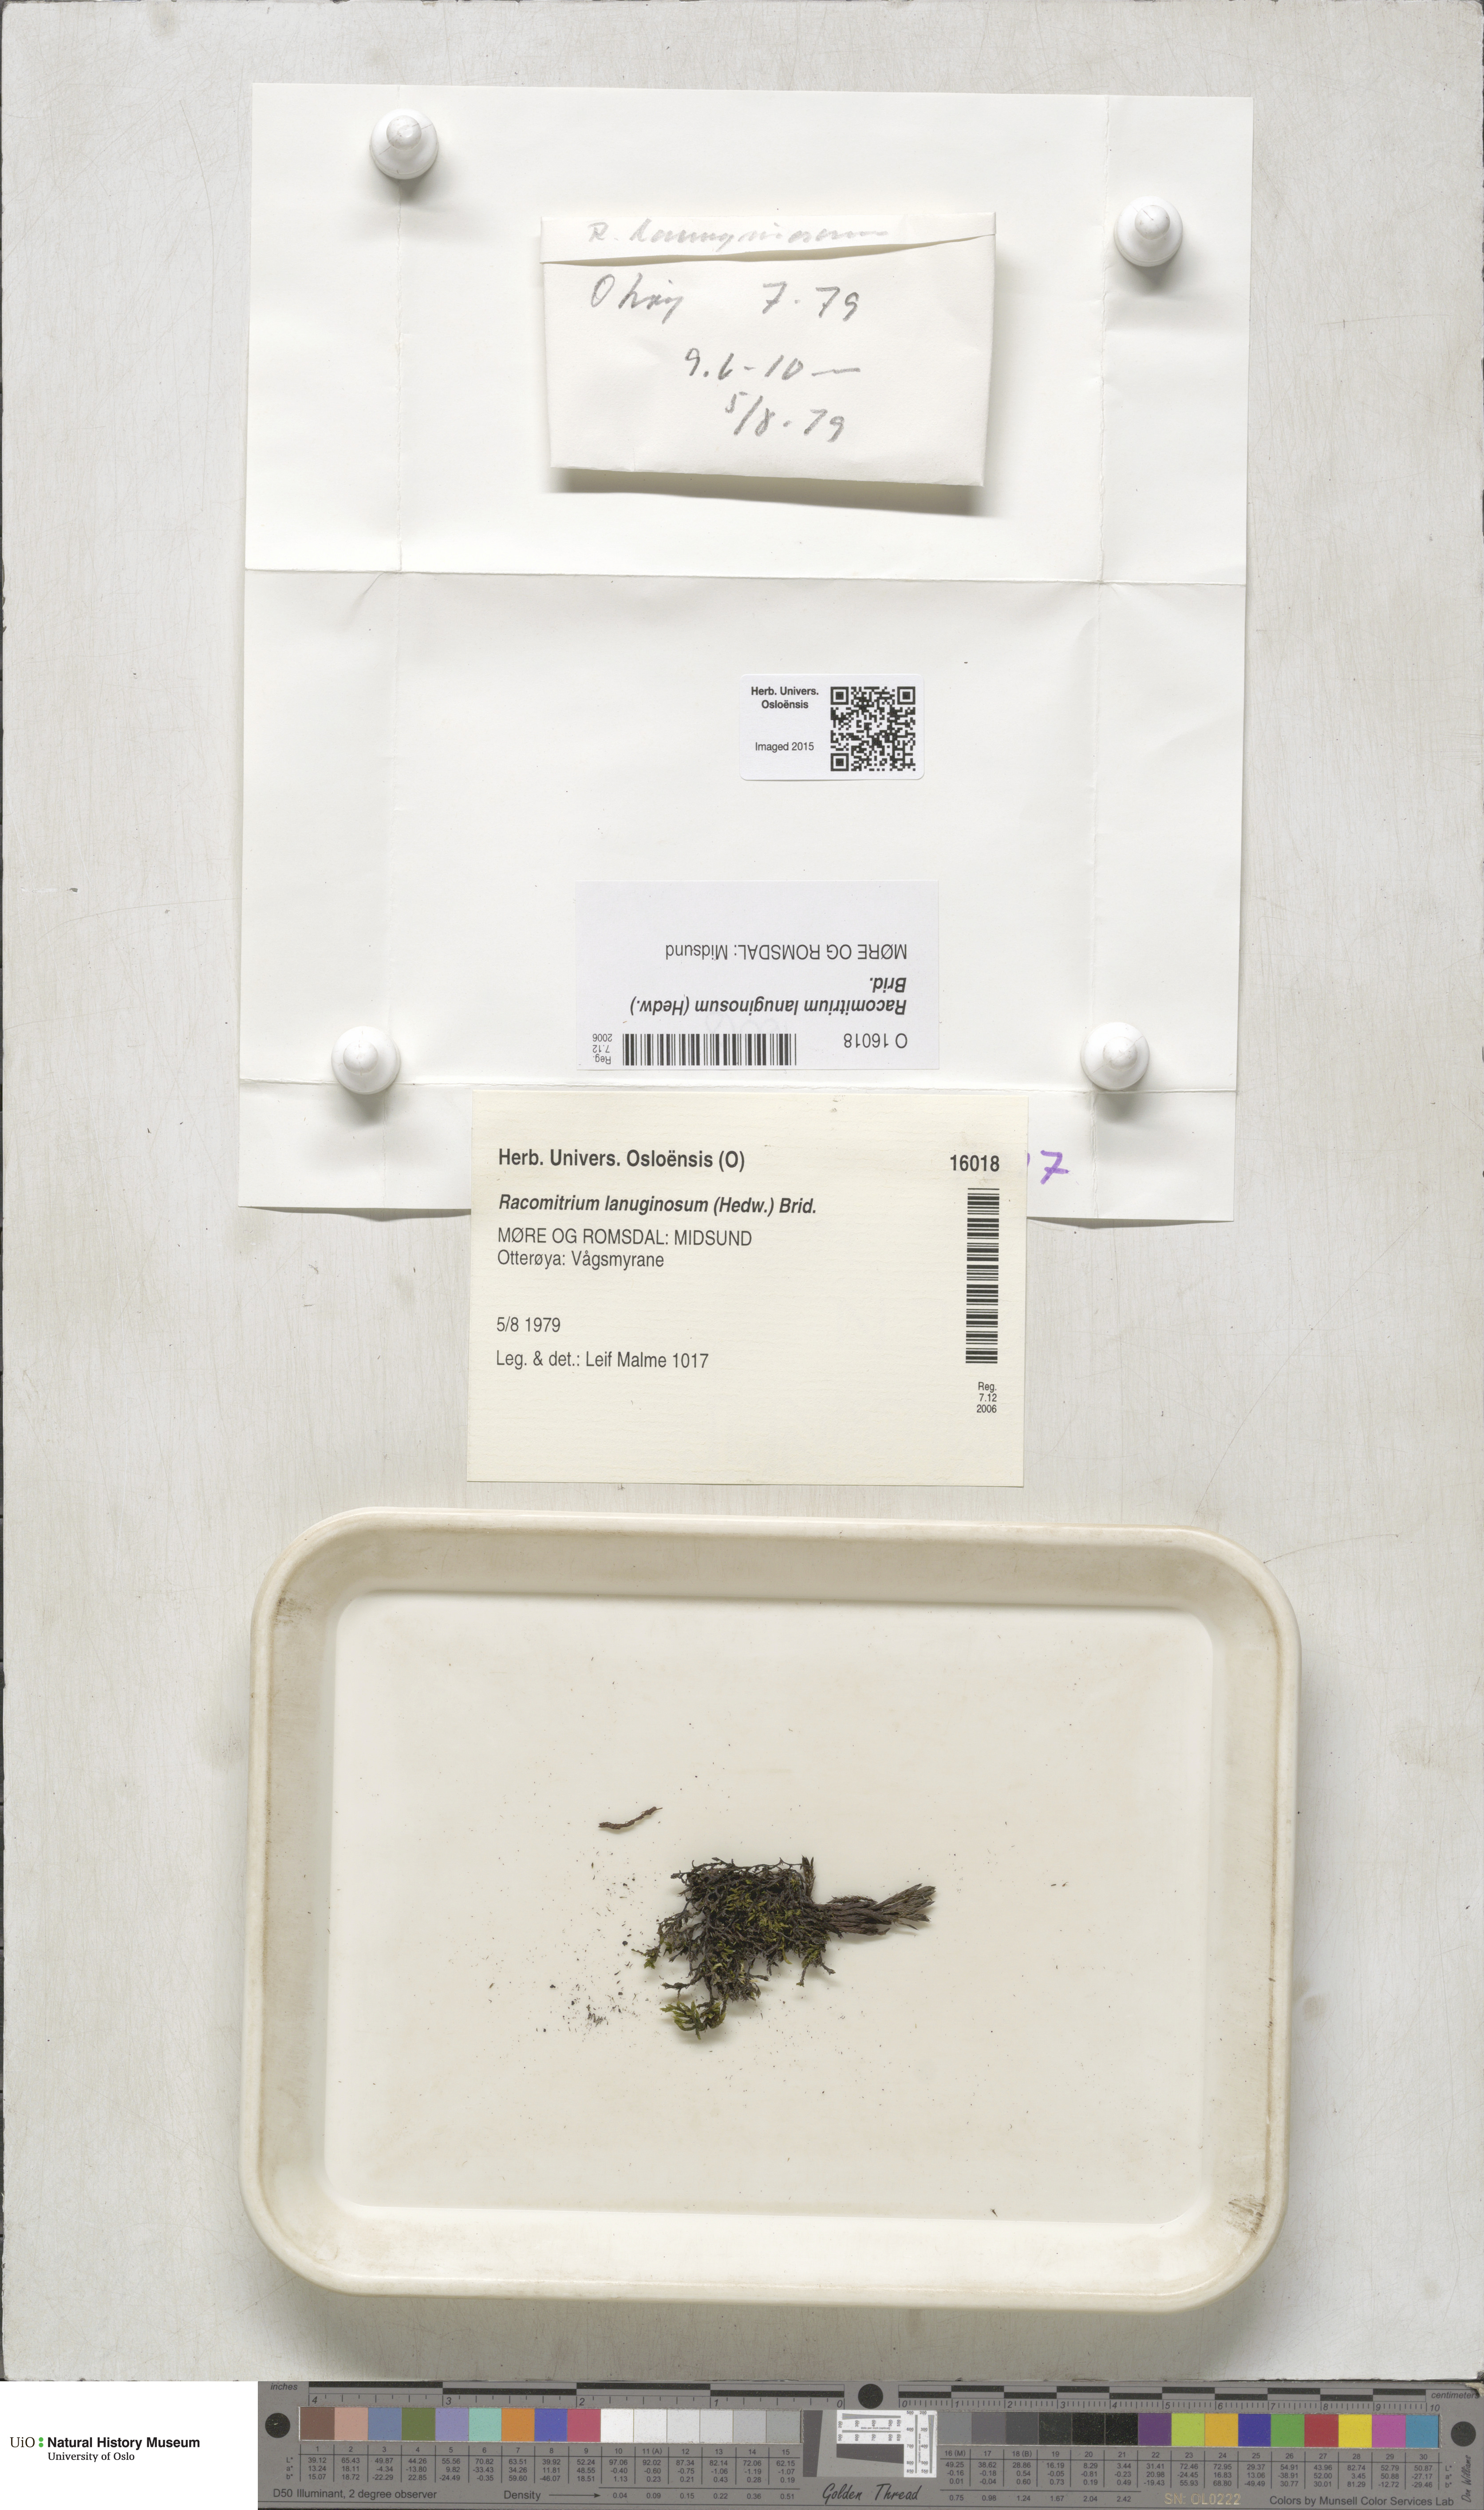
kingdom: Plantae
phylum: Bryophyta
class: Bryopsida
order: Grimmiales
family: Grimmiaceae
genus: Racomitrium
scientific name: Racomitrium lanuginosum
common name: Hoary rock moss
